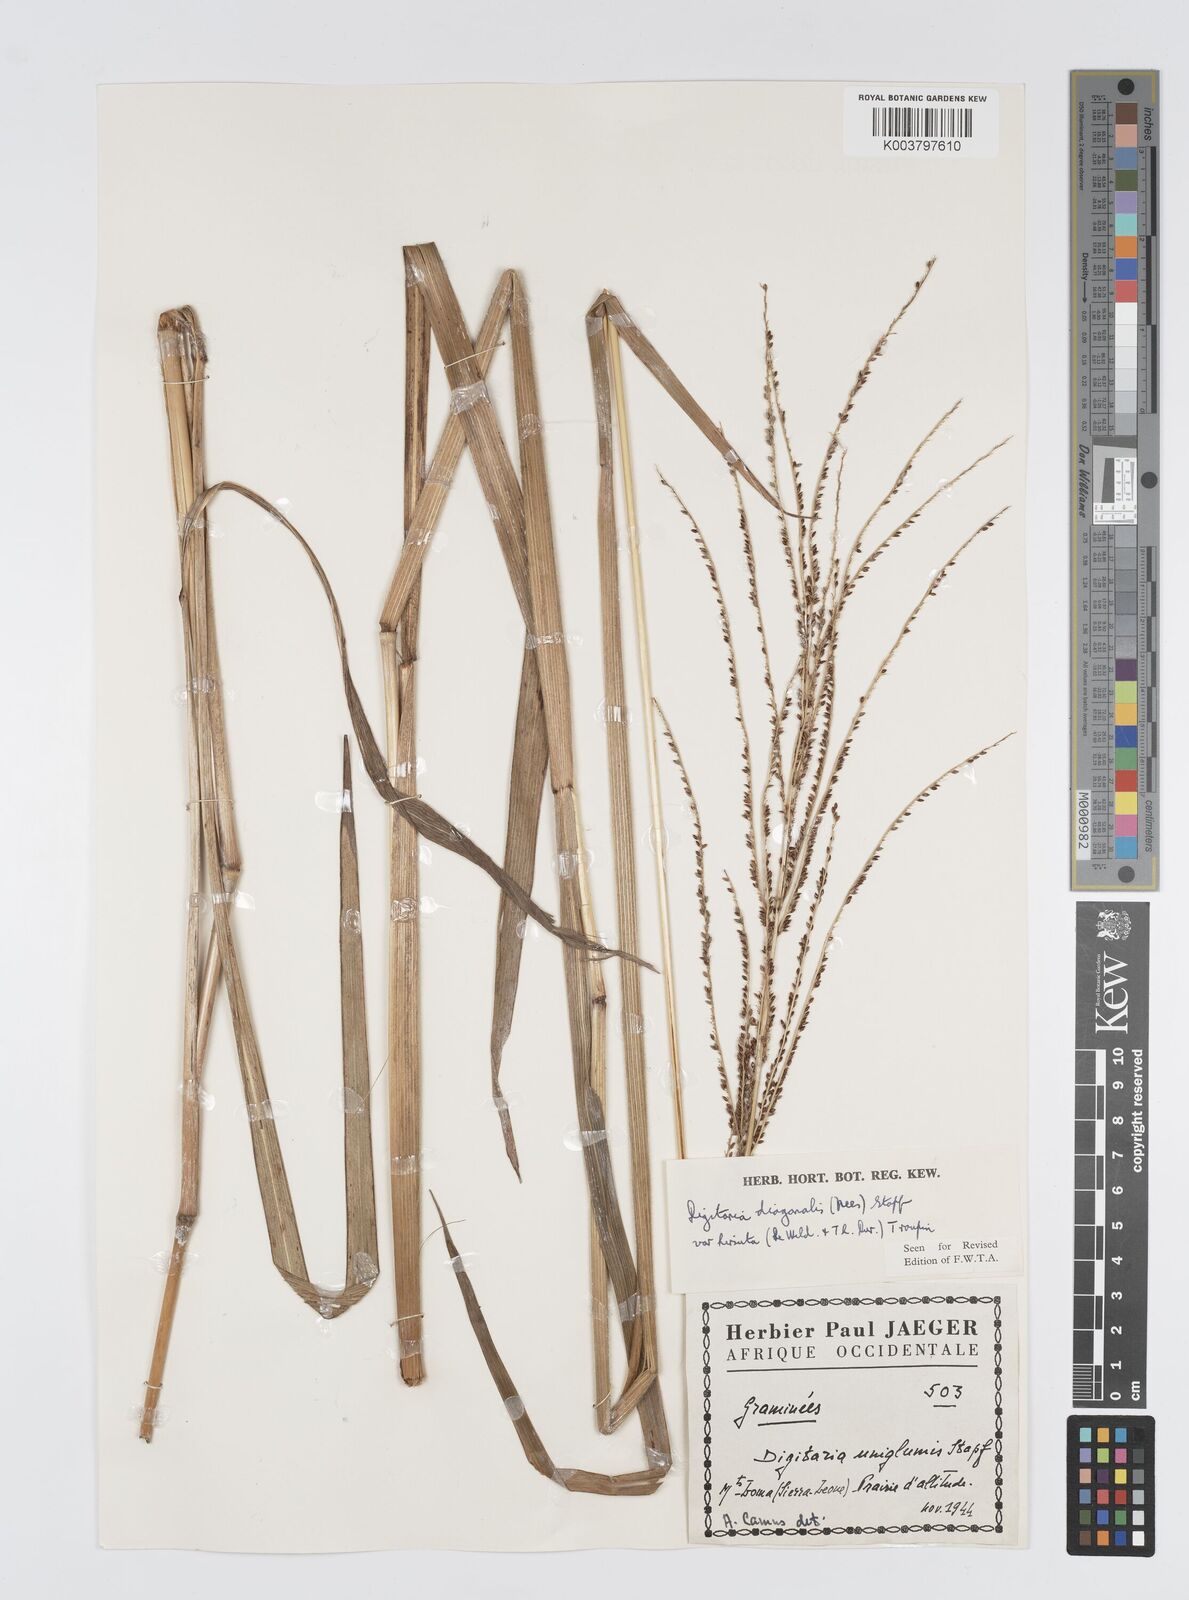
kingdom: Plantae
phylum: Tracheophyta
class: Liliopsida
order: Poales
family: Poaceae
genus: Digitaria
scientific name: Digitaria diagonalis
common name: Brown-seed finger grass
